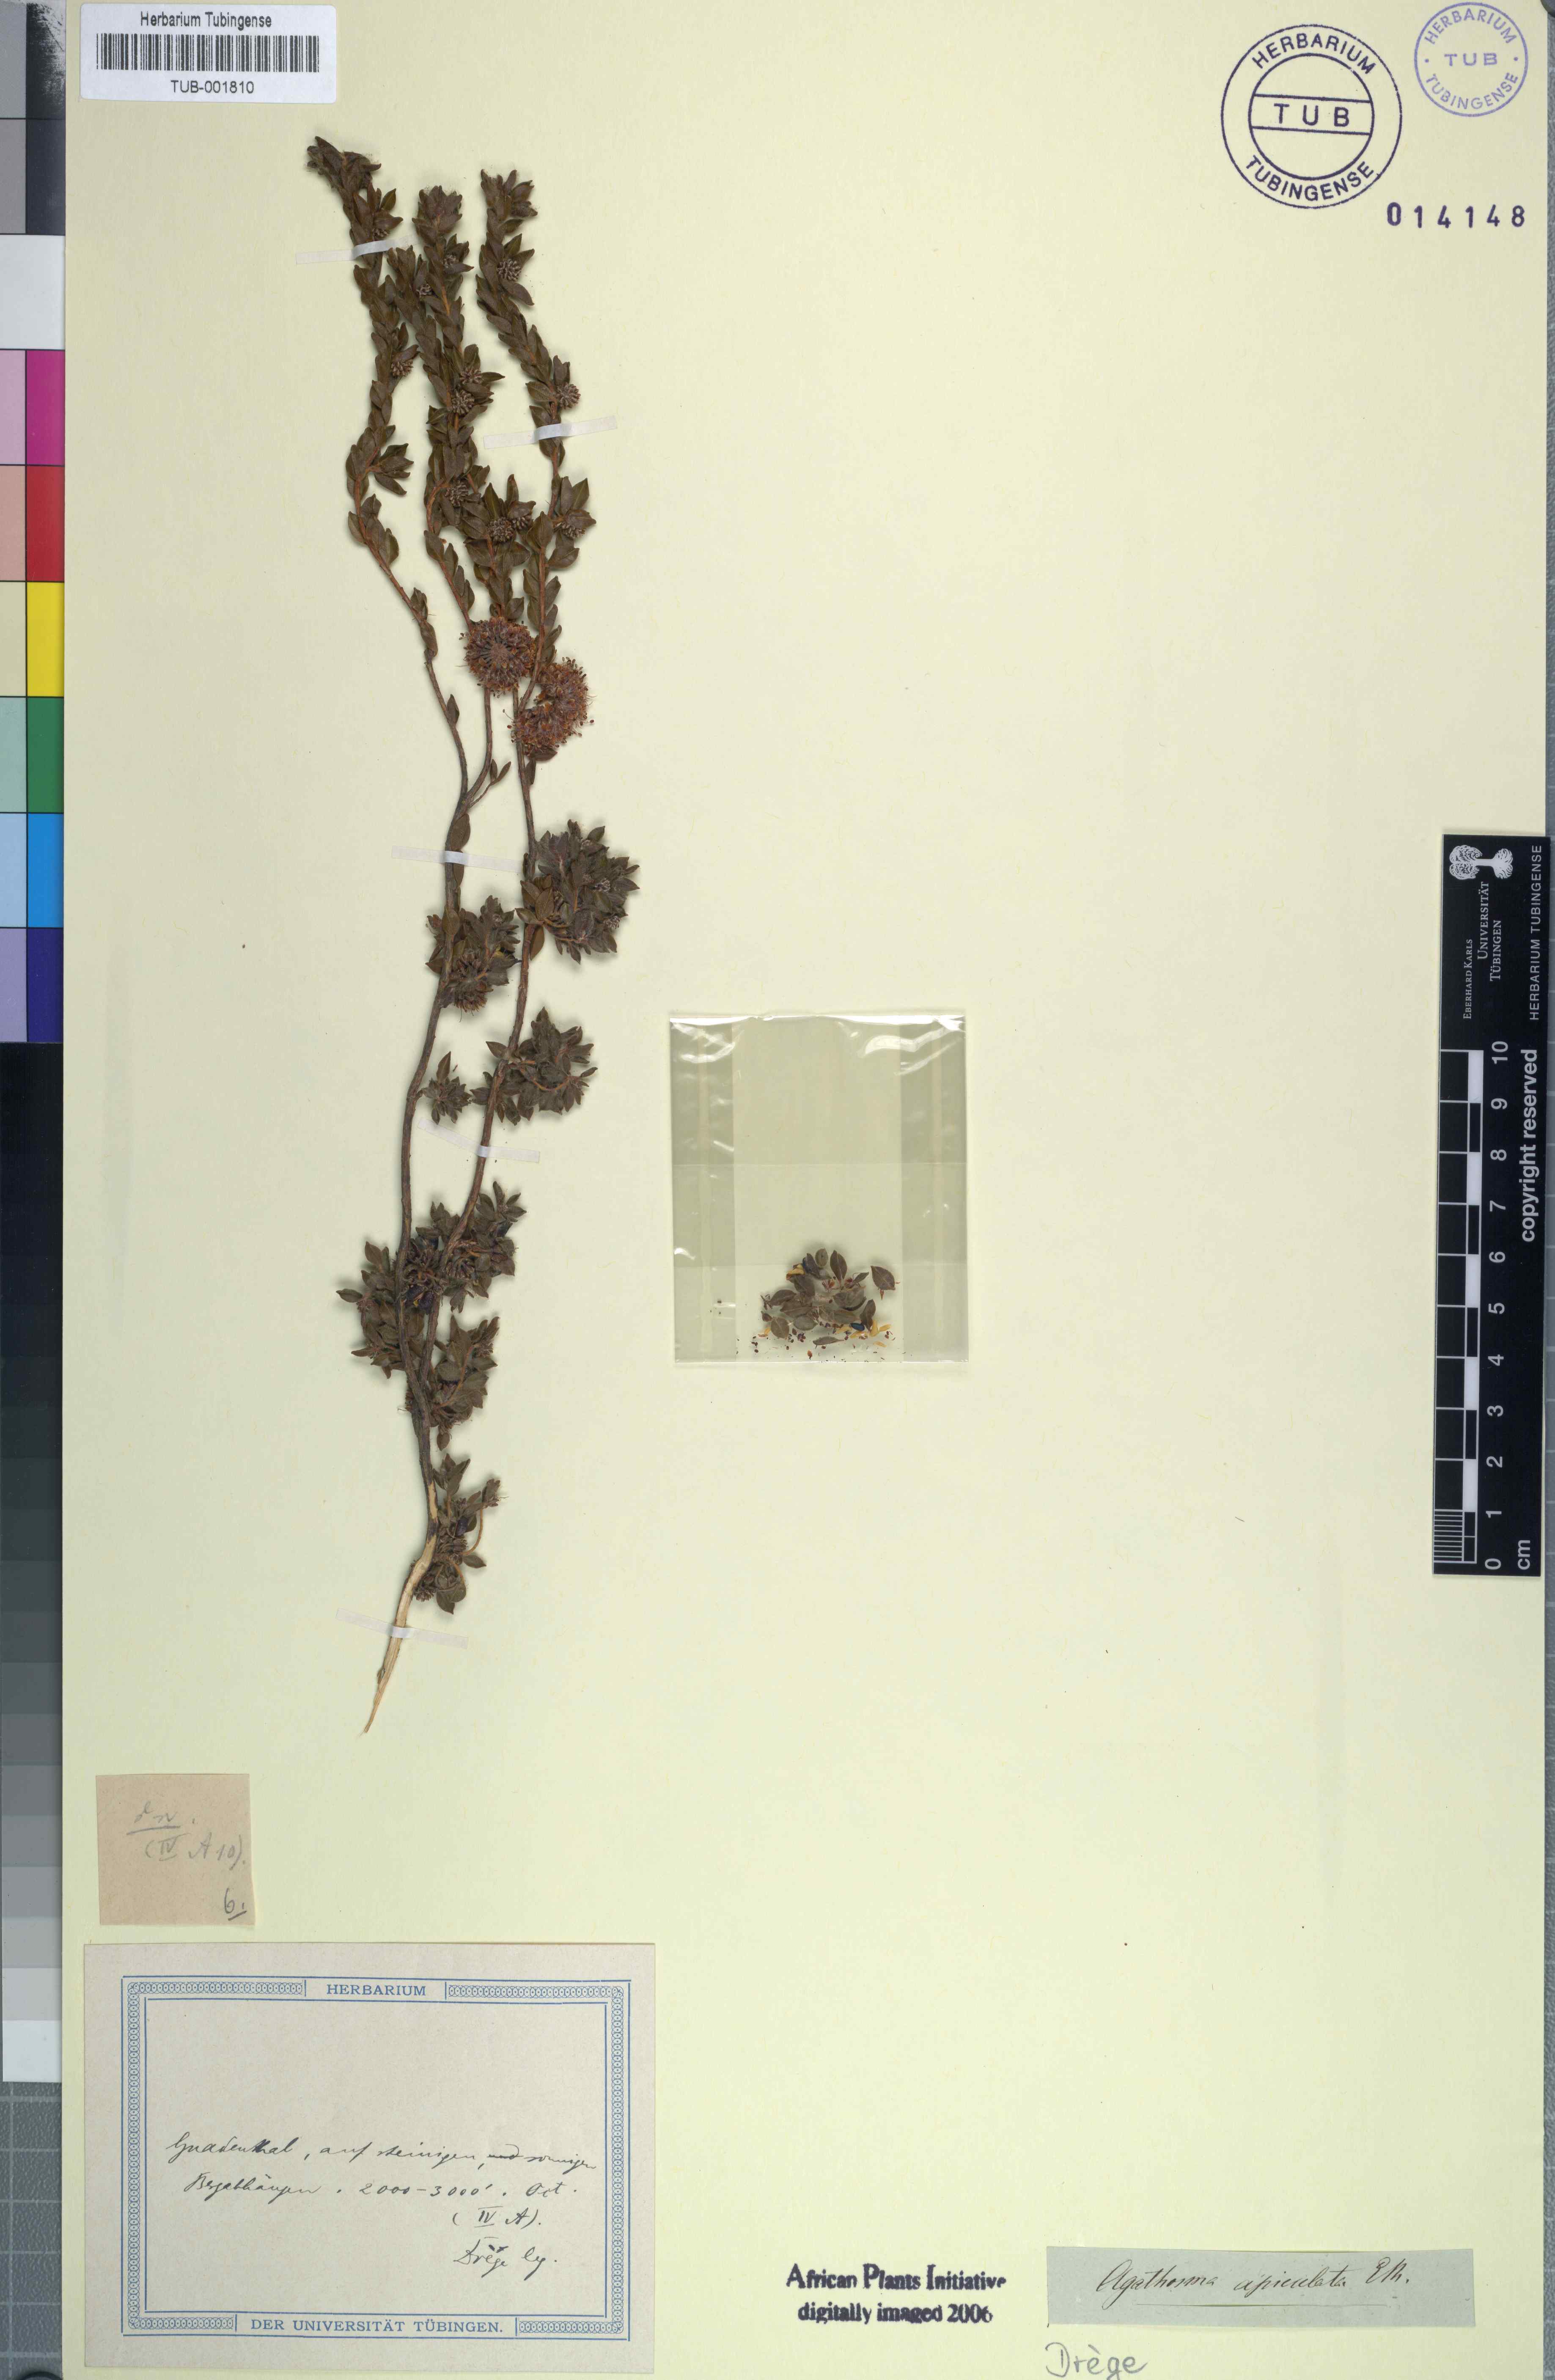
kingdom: Plantae
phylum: Tracheophyta
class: Magnoliopsida
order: Sapindales
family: Rutaceae
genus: Agathosma
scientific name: Agathosma leptospermoides
